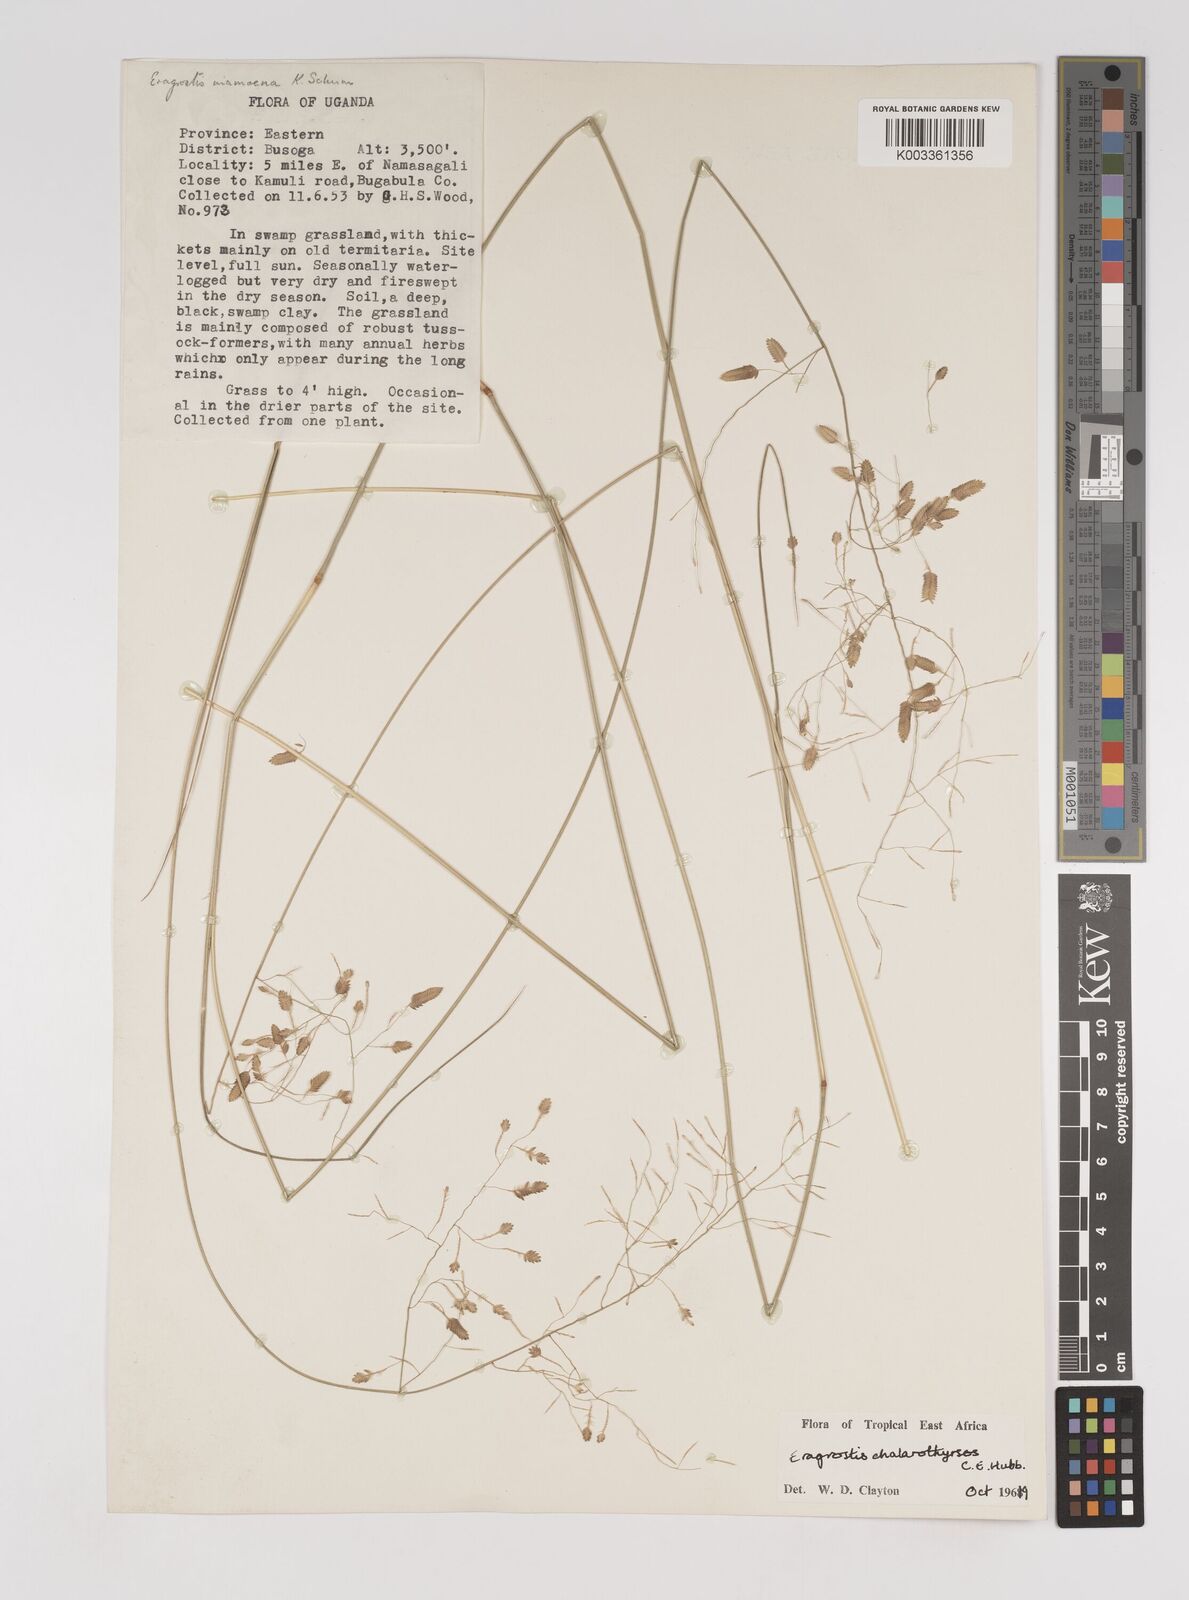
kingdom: Plantae
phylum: Tracheophyta
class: Liliopsida
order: Poales
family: Poaceae
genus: Eragrostis
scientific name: Eragrostis chalarothyrsos
